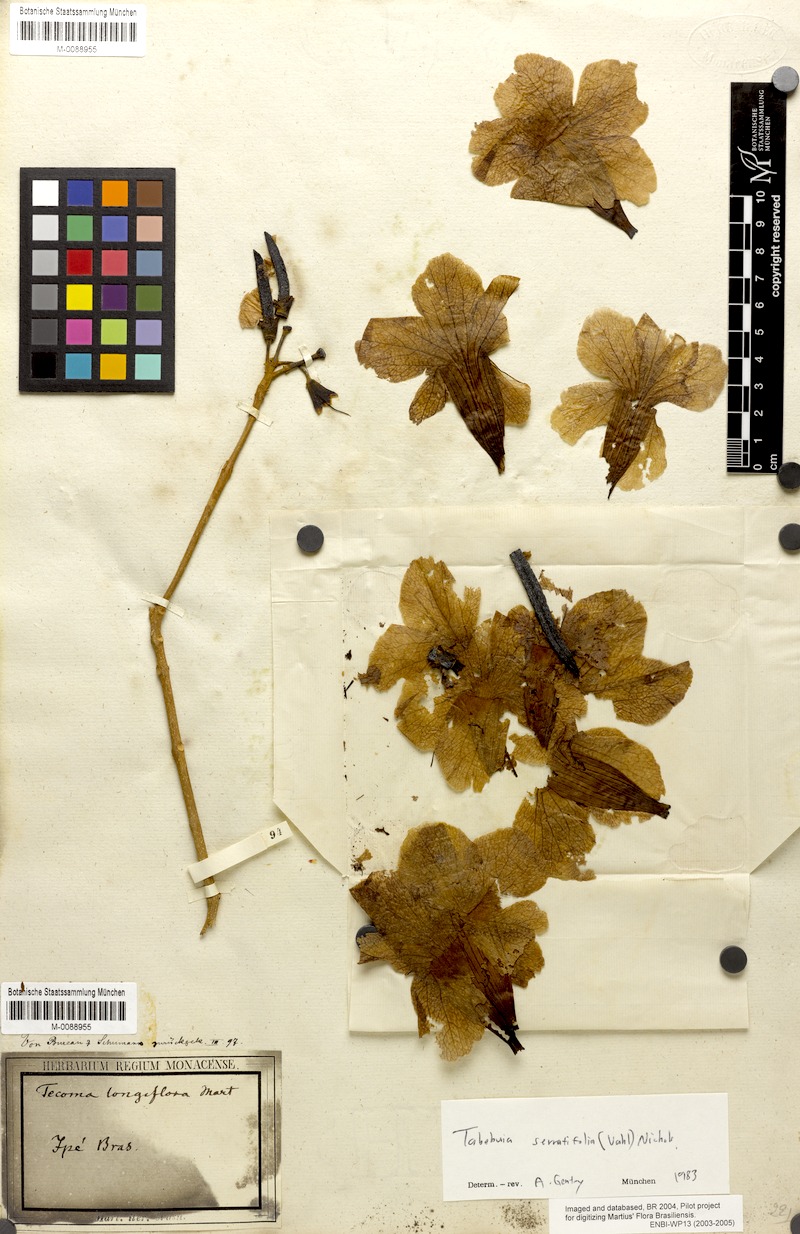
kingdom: Plantae
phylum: Tracheophyta
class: Magnoliopsida
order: Lamiales
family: Bignoniaceae
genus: Handroanthus
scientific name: Handroanthus serratifolius
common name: Yellow ipe
